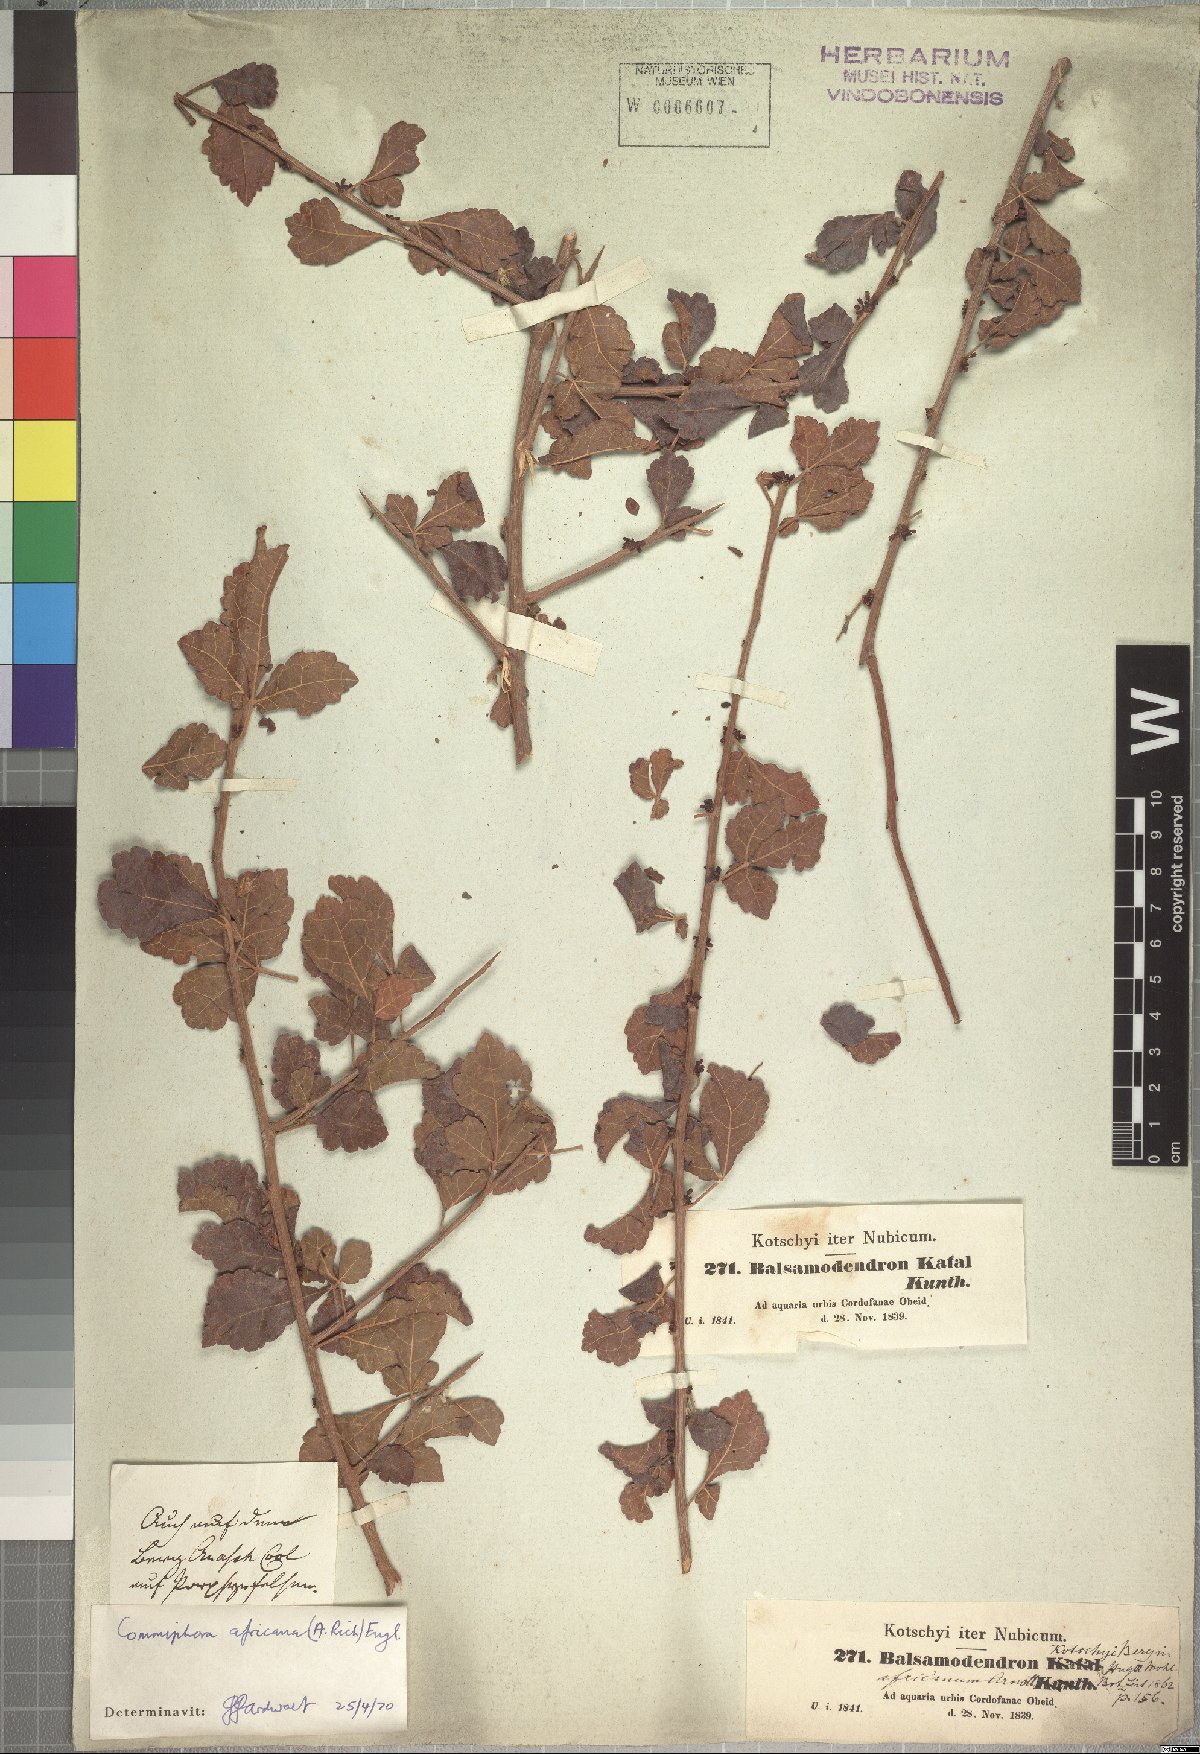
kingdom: Plantae
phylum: Tracheophyta
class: Magnoliopsida
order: Sapindales
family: Burseraceae
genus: Commiphora
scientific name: Commiphora africana
